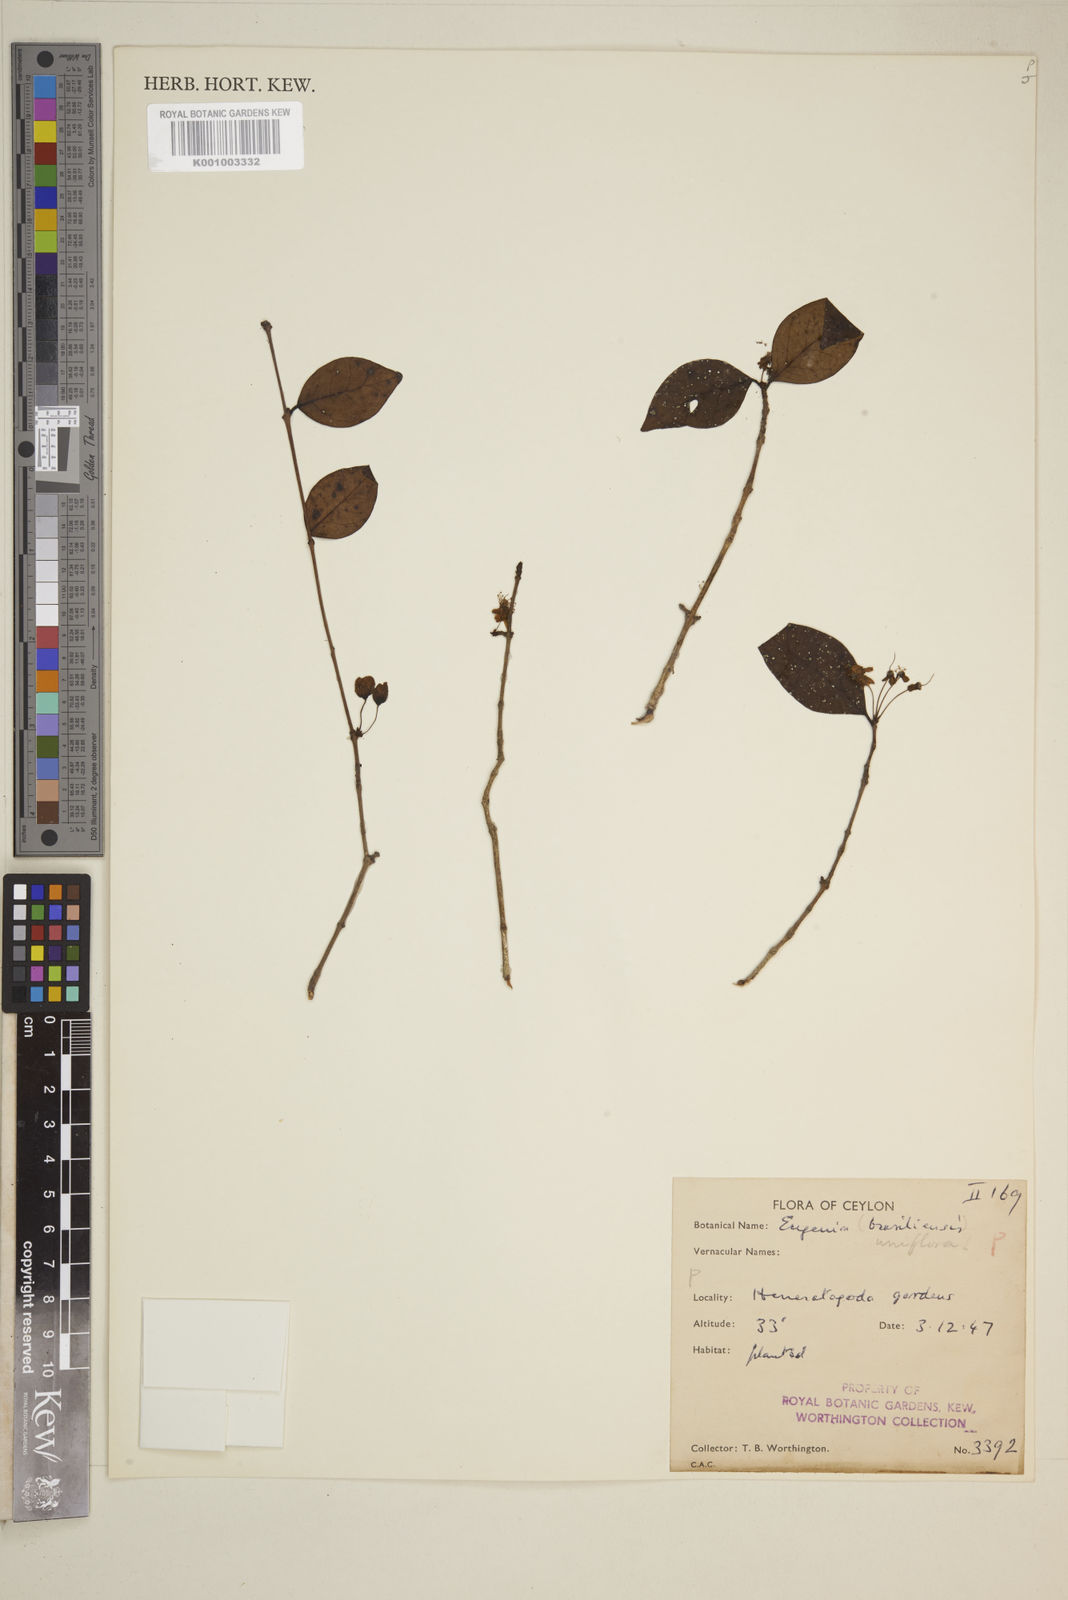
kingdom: Plantae
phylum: Tracheophyta
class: Magnoliopsida
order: Myrtales
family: Myrtaceae
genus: Eugenia
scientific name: Eugenia uniflora
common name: Surinam cherry
